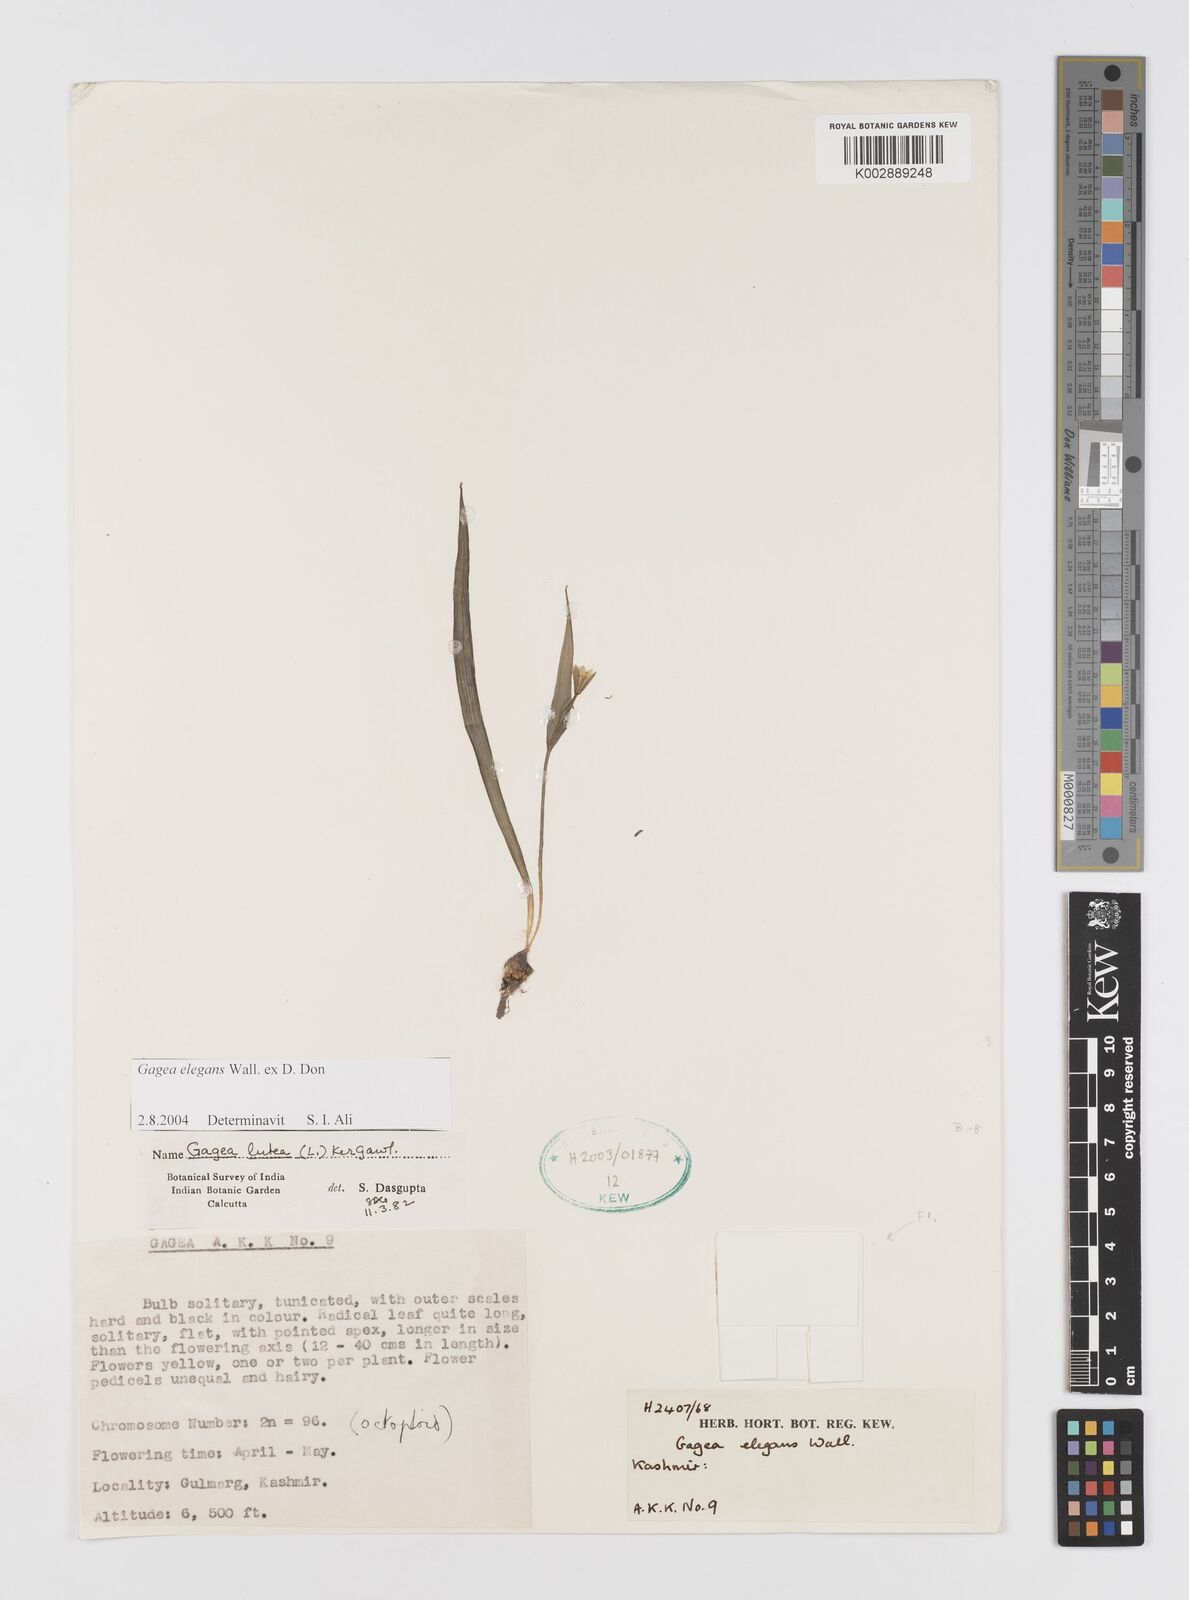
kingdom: Plantae
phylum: Tracheophyta
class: Liliopsida
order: Liliales
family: Liliaceae
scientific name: Liliaceae
